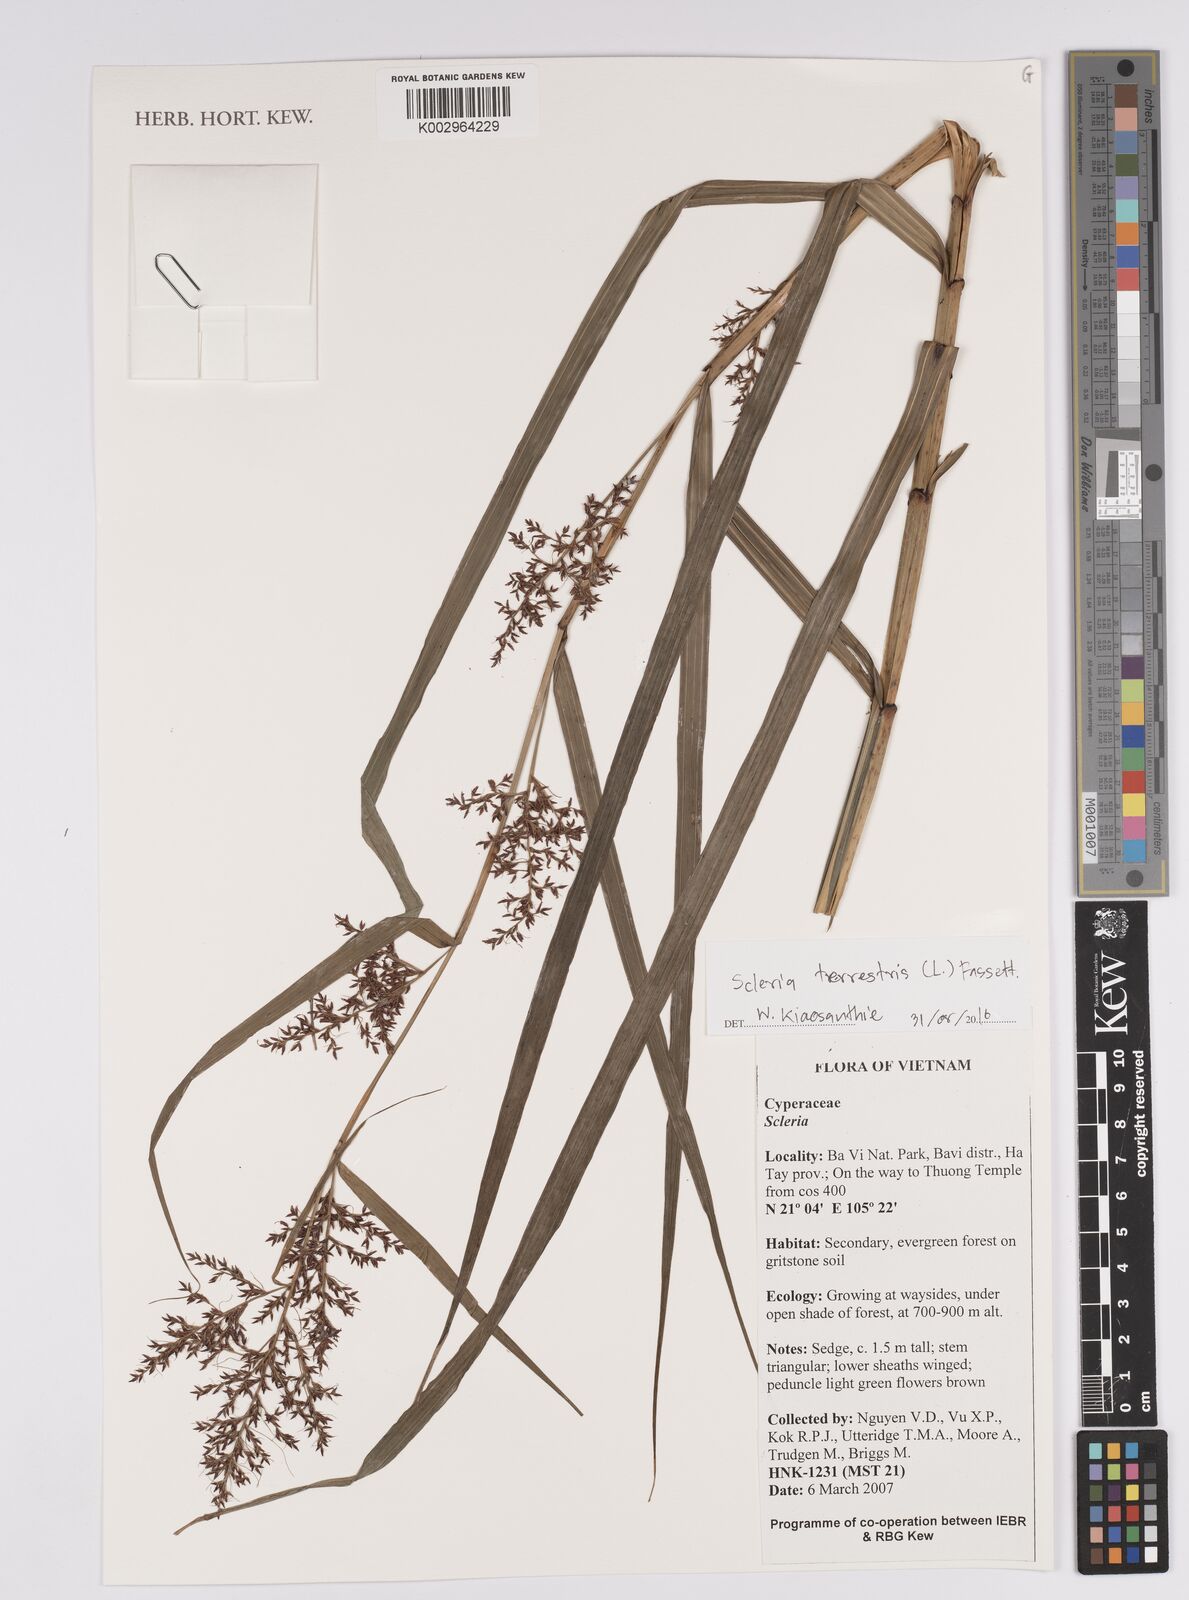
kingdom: Plantae
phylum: Tracheophyta
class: Liliopsida
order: Poales
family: Cyperaceae
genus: Scleria
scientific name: Scleria terrestris
